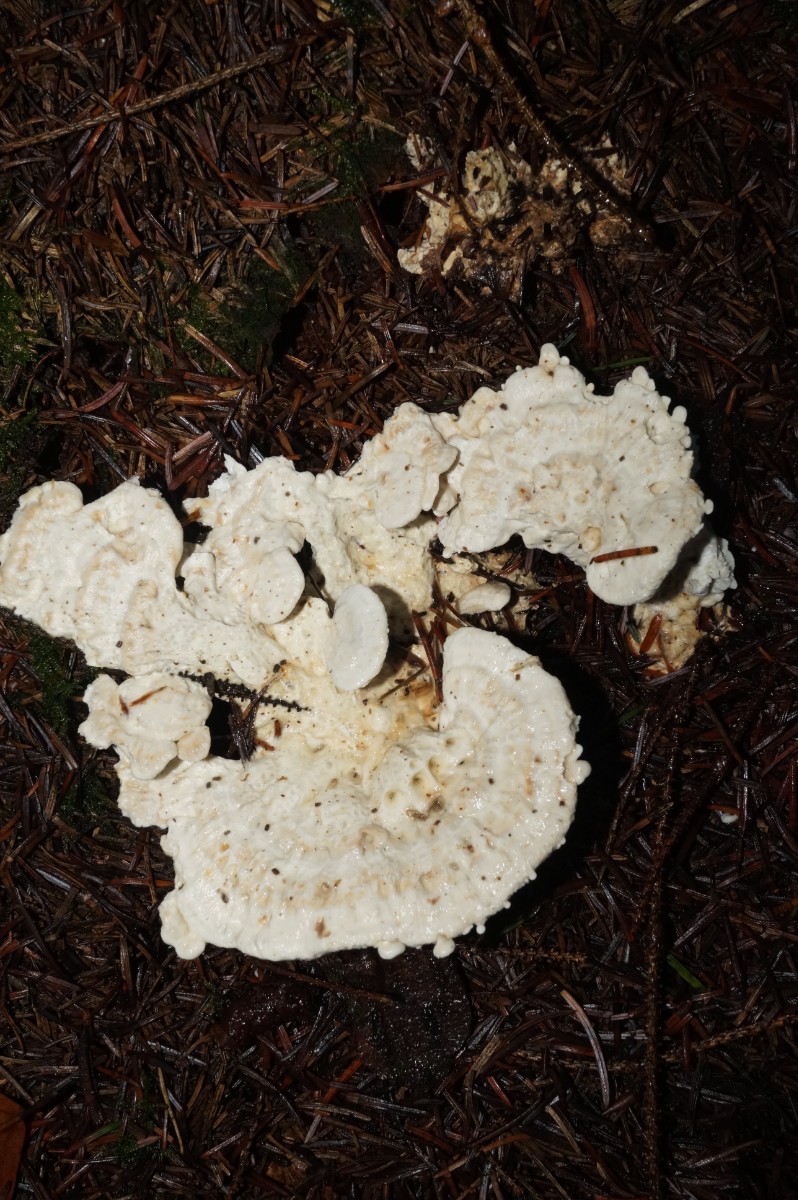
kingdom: Fungi
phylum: Basidiomycota
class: Agaricomycetes
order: Polyporales
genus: Calcipostia
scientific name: Calcipostia guttulata
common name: dråbe-kødporesvamp
